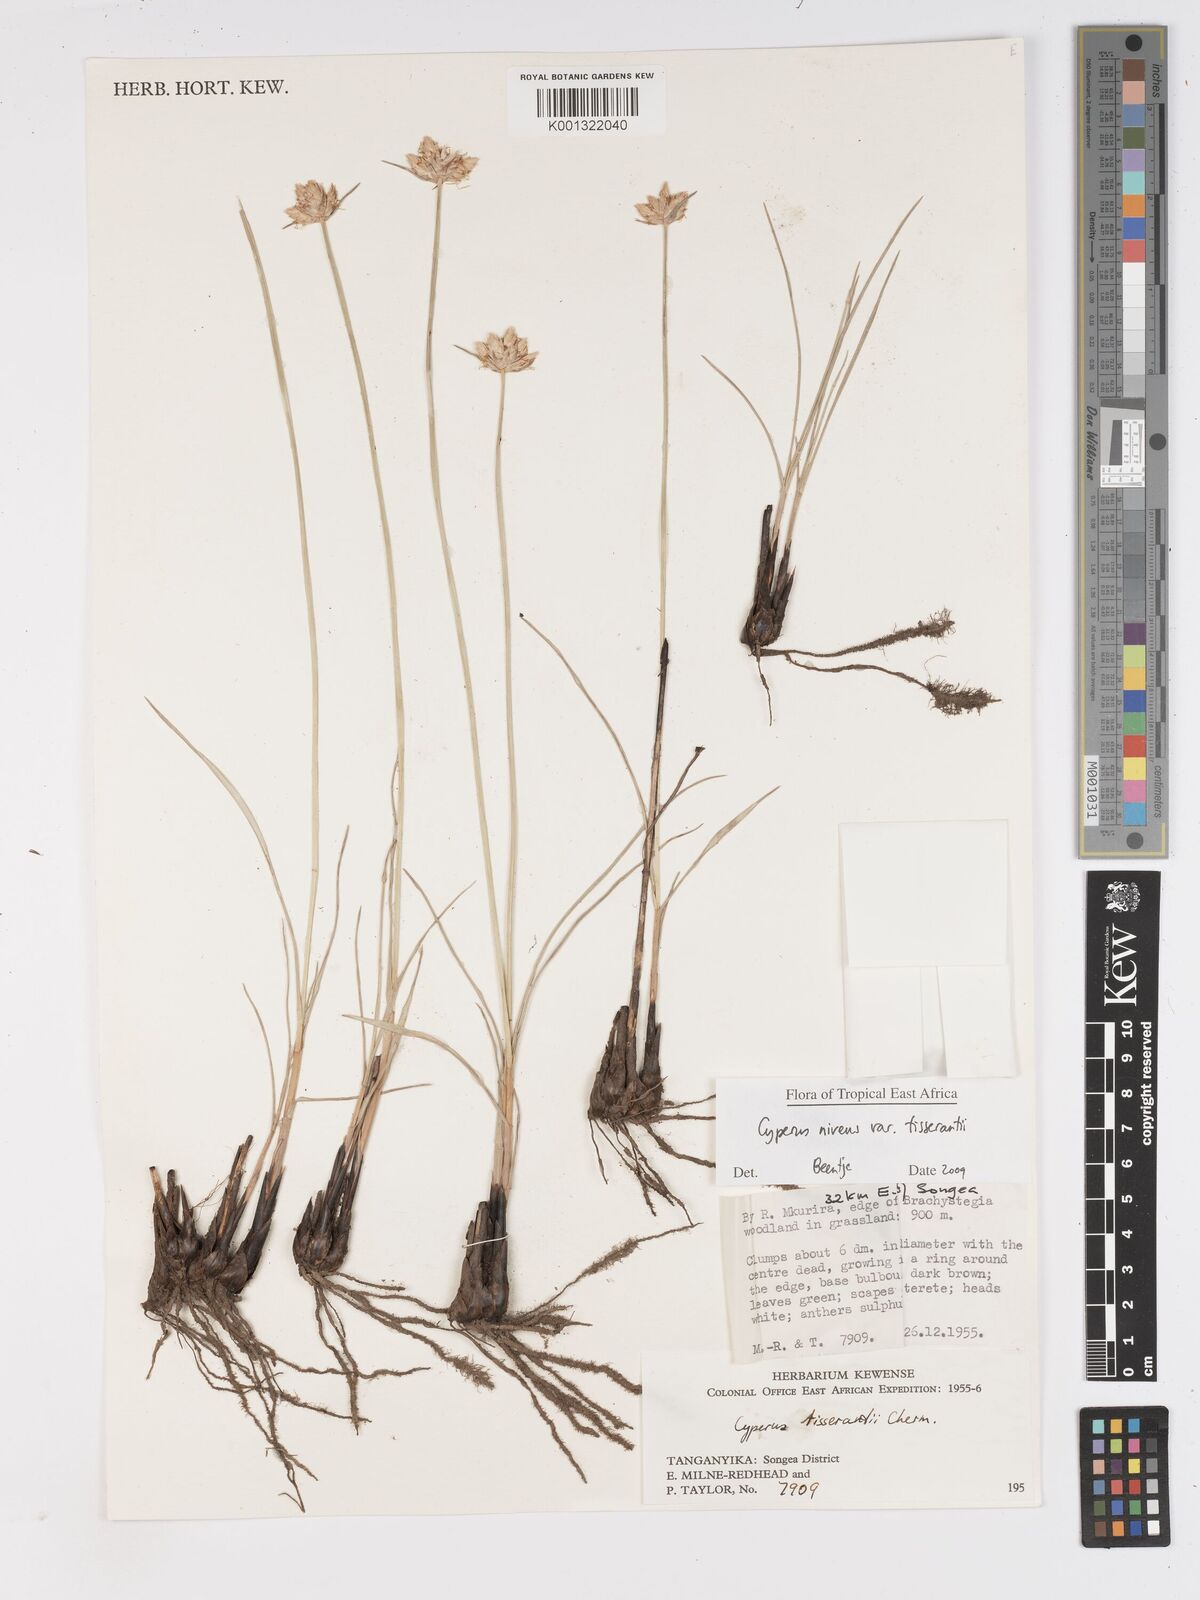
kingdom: Plantae
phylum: Tracheophyta
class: Liliopsida
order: Poales
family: Cyperaceae
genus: Cyperus
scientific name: Cyperus niveus
